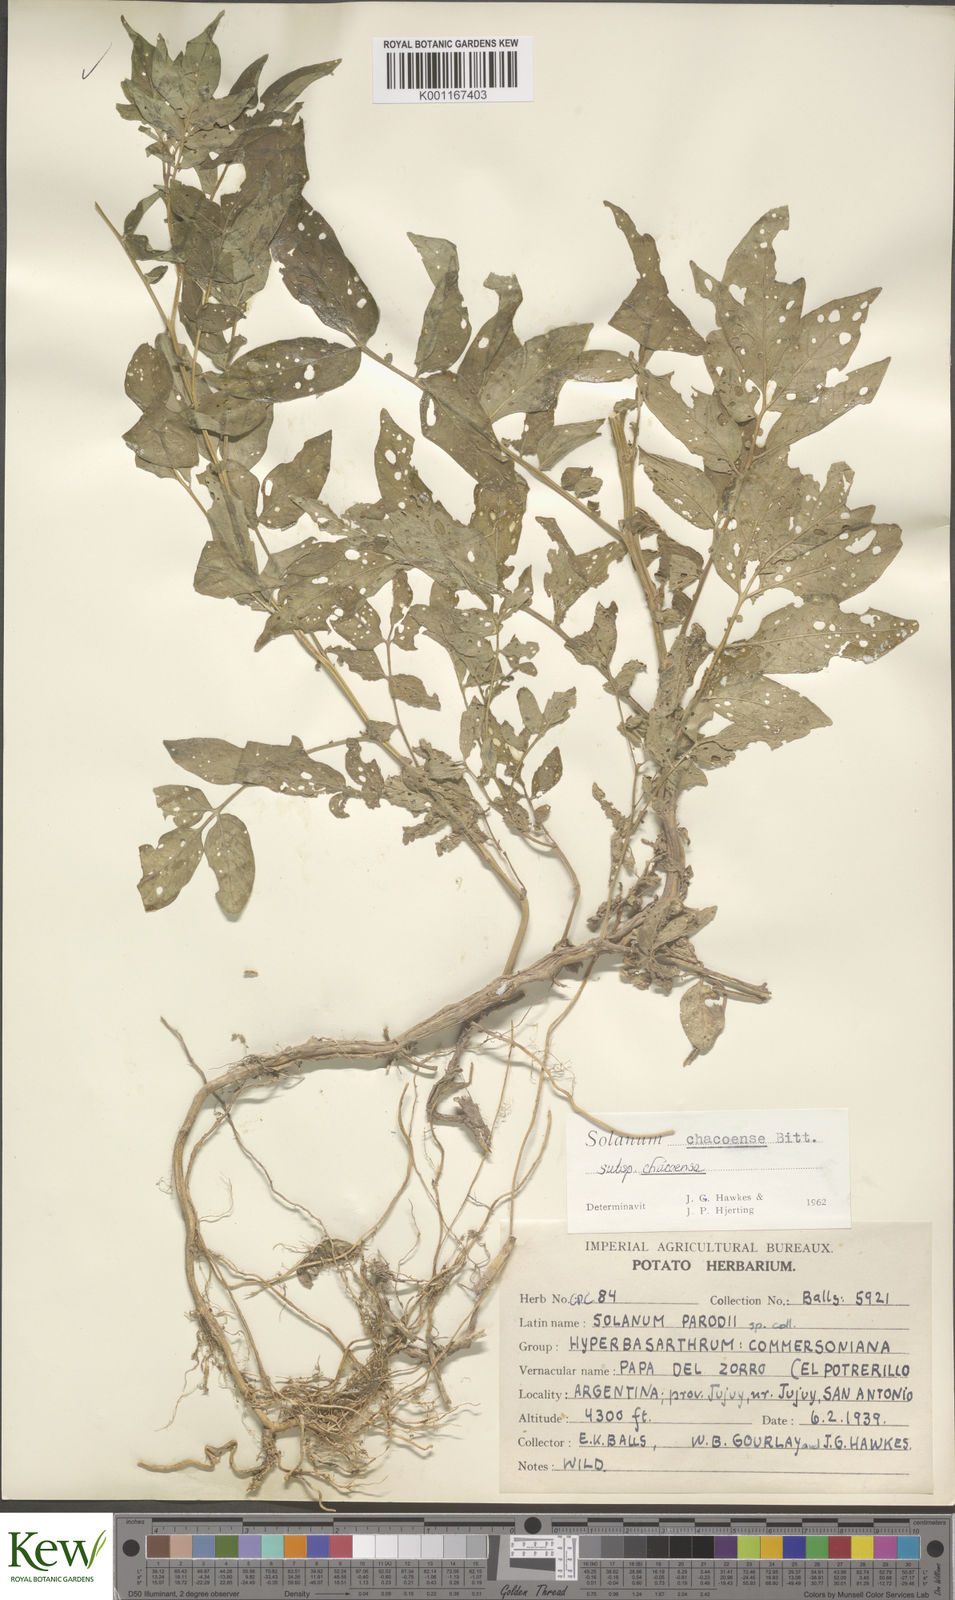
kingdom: Plantae
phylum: Tracheophyta
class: Magnoliopsida
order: Solanales
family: Solanaceae
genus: Solanum
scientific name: Solanum chacoense
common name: Chaco potato
